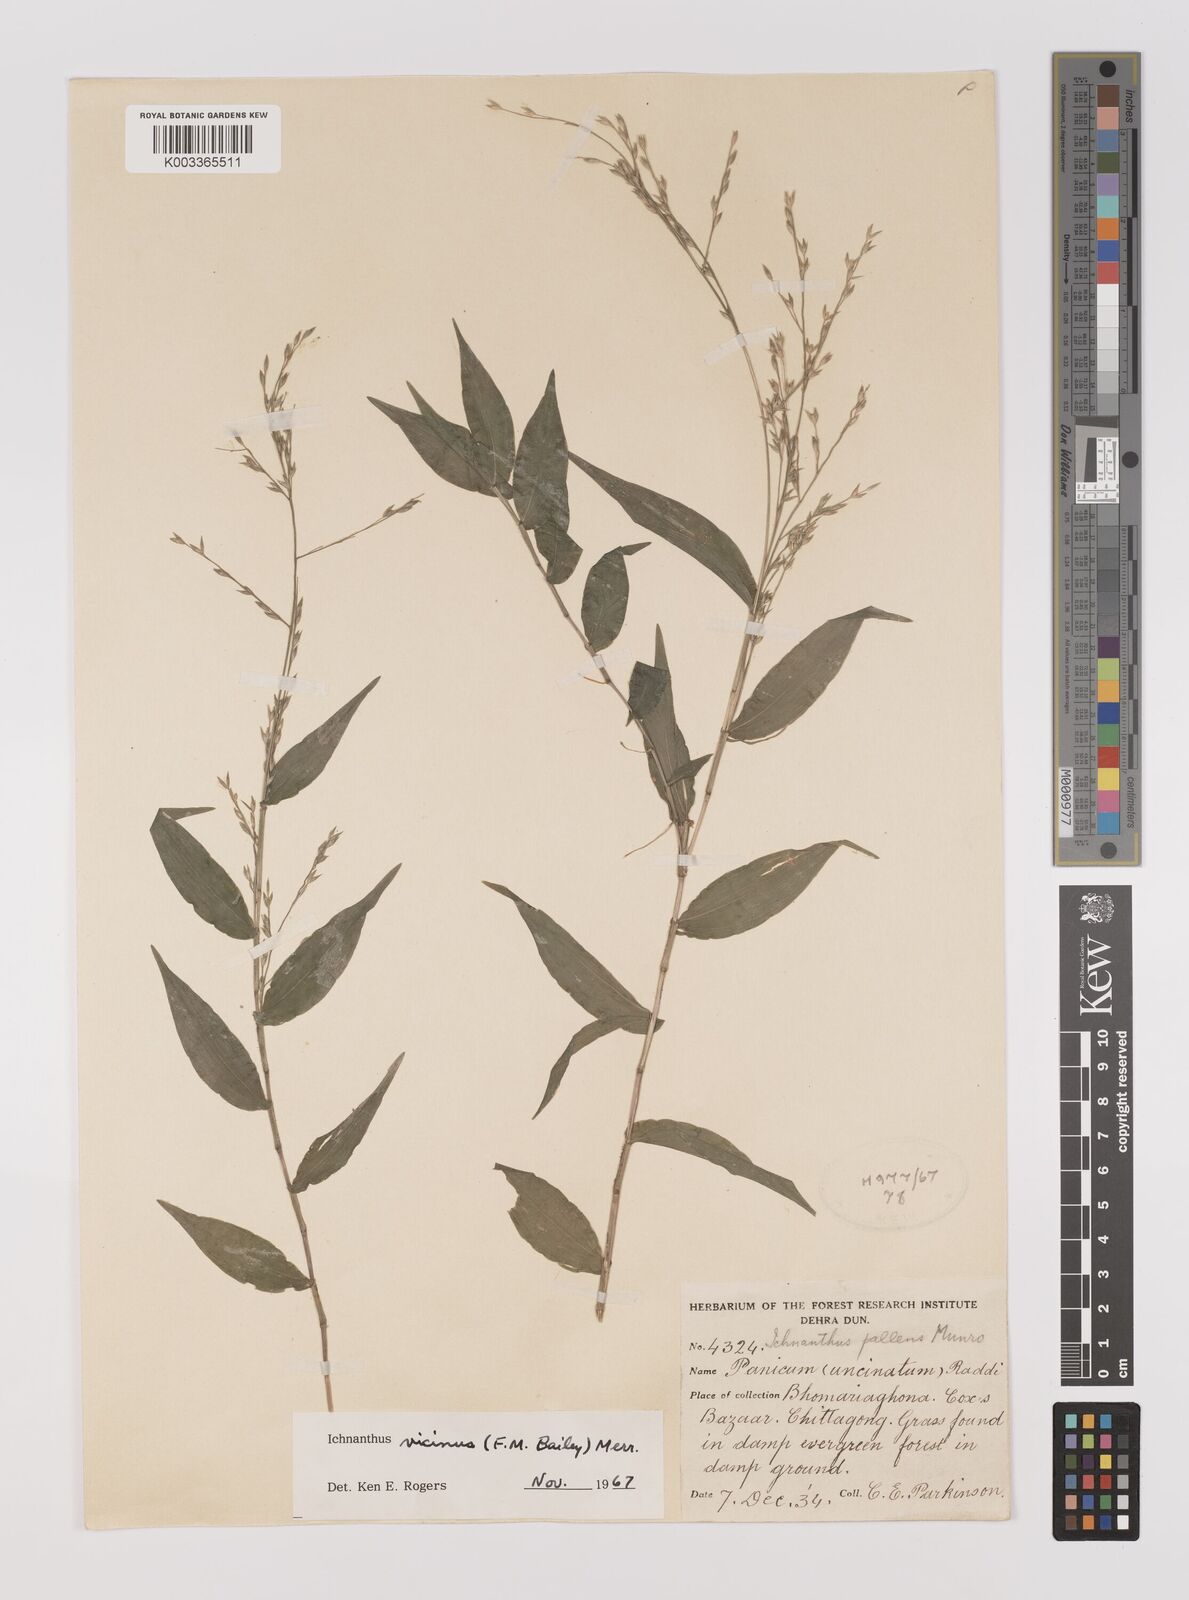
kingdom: Plantae
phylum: Tracheophyta
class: Liliopsida
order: Poales
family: Poaceae
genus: Ichnanthus
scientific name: Ichnanthus pallens
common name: Water grass
